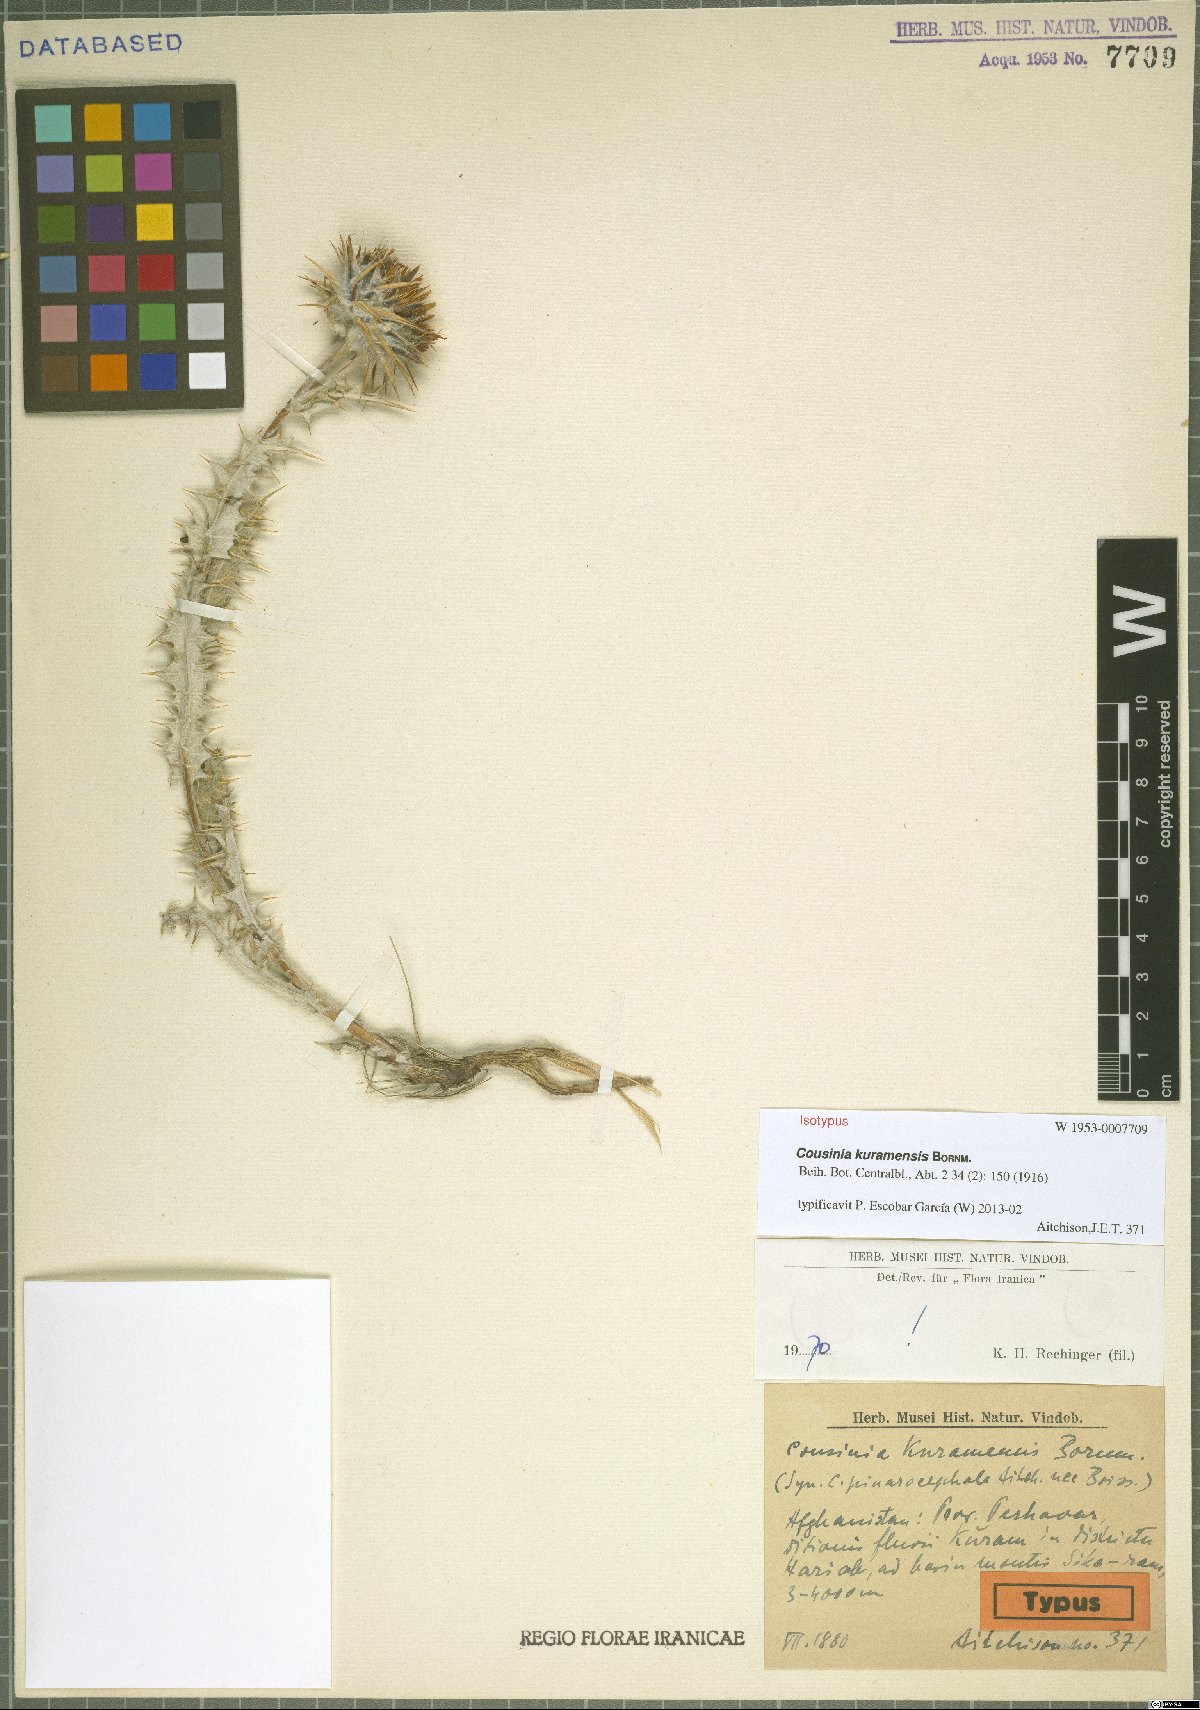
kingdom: Plantae
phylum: Tracheophyta
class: Magnoliopsida
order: Asterales
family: Asteraceae
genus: Cousinia
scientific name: Cousinia kuramensis
